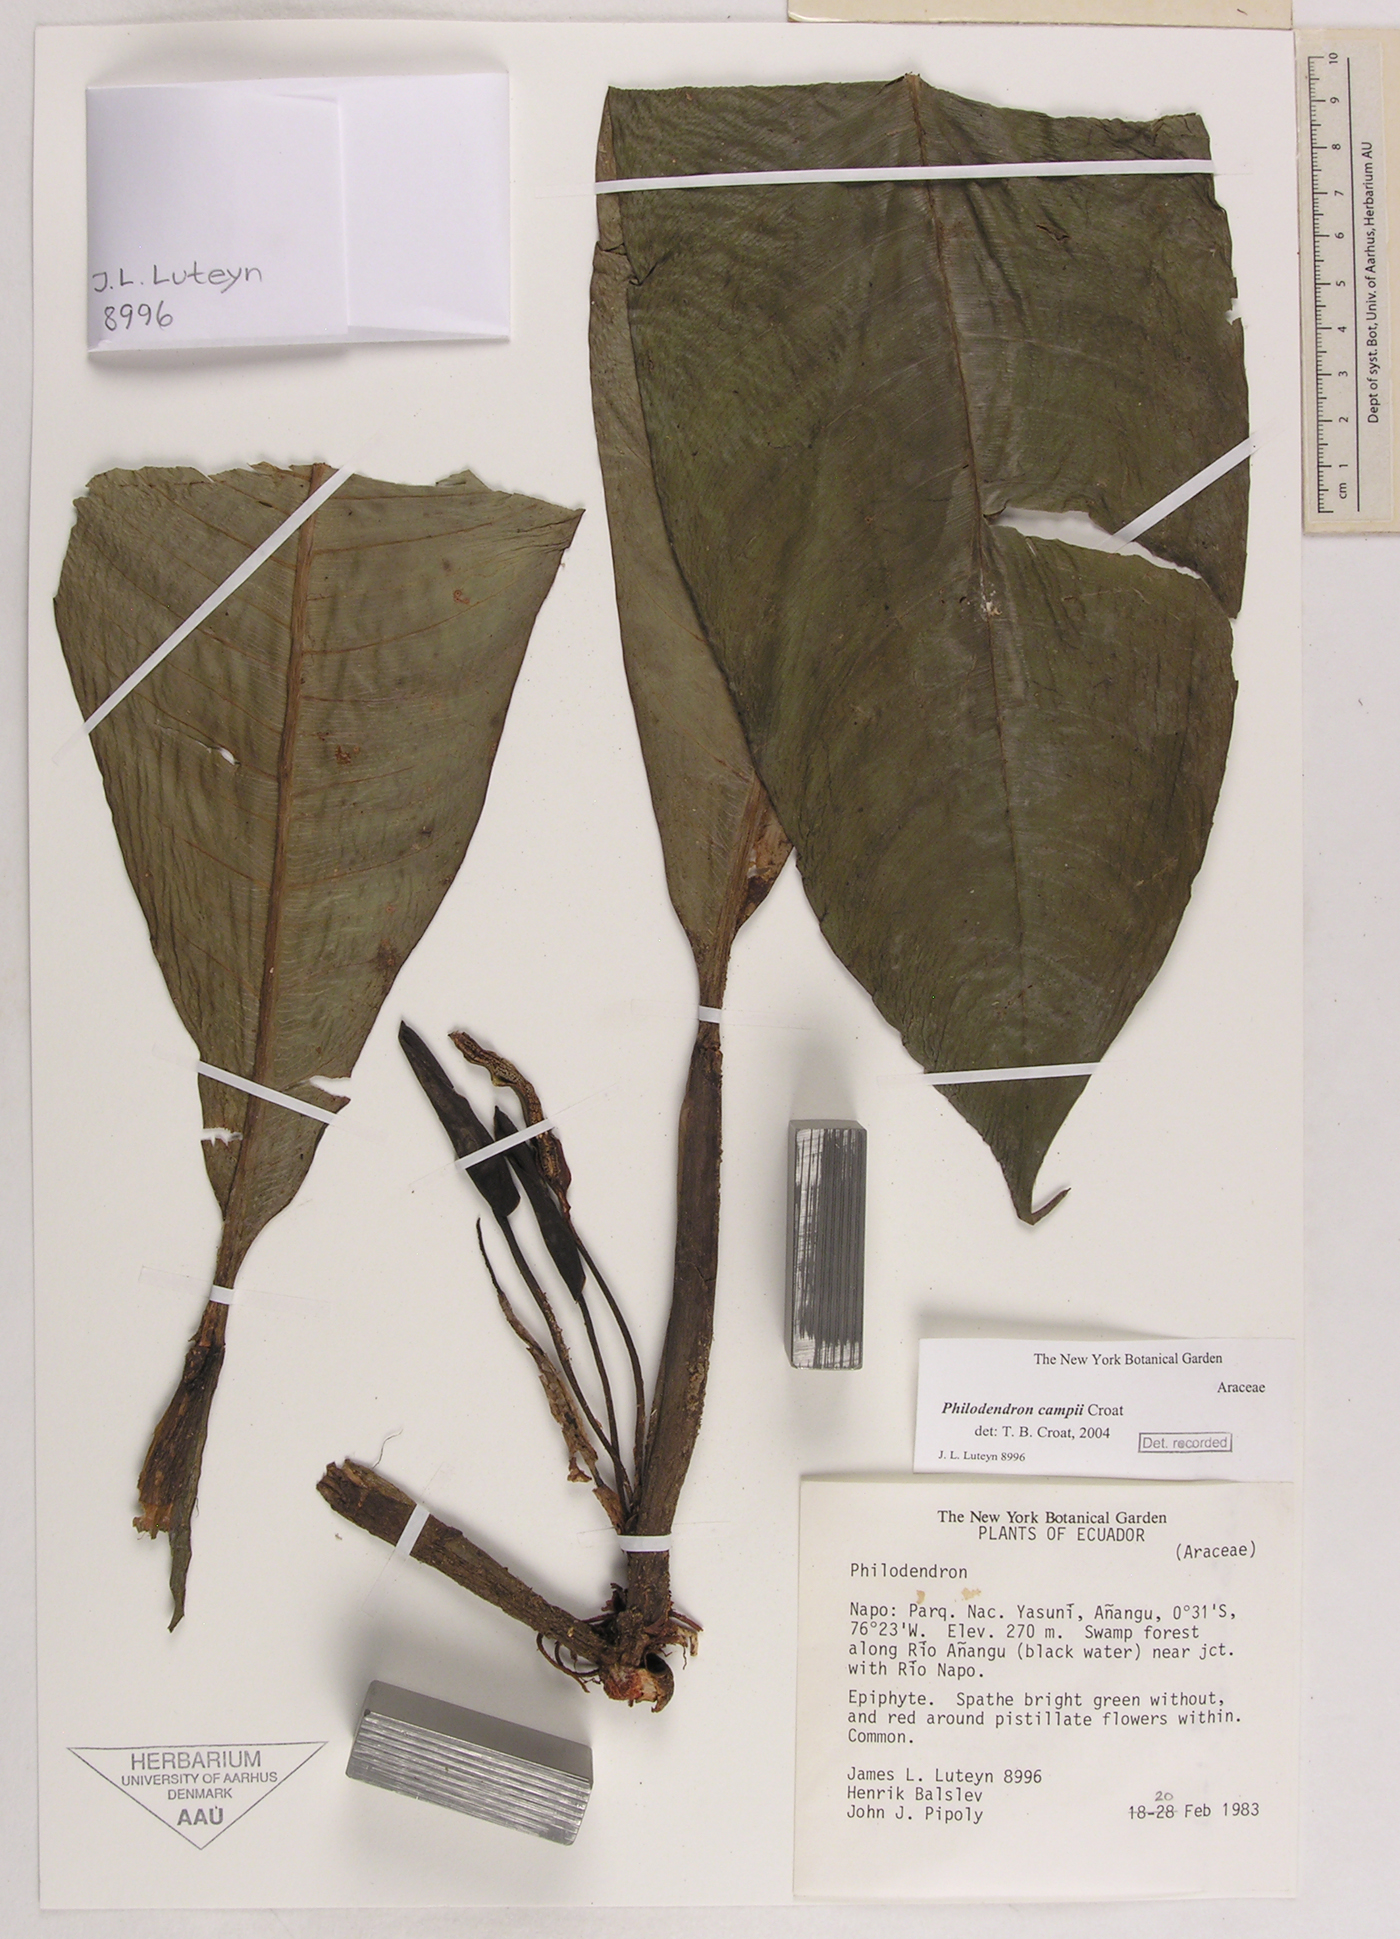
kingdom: Plantae
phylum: Tracheophyta
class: Liliopsida
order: Alismatales
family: Araceae
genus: Philodendron
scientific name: Philodendron campii
